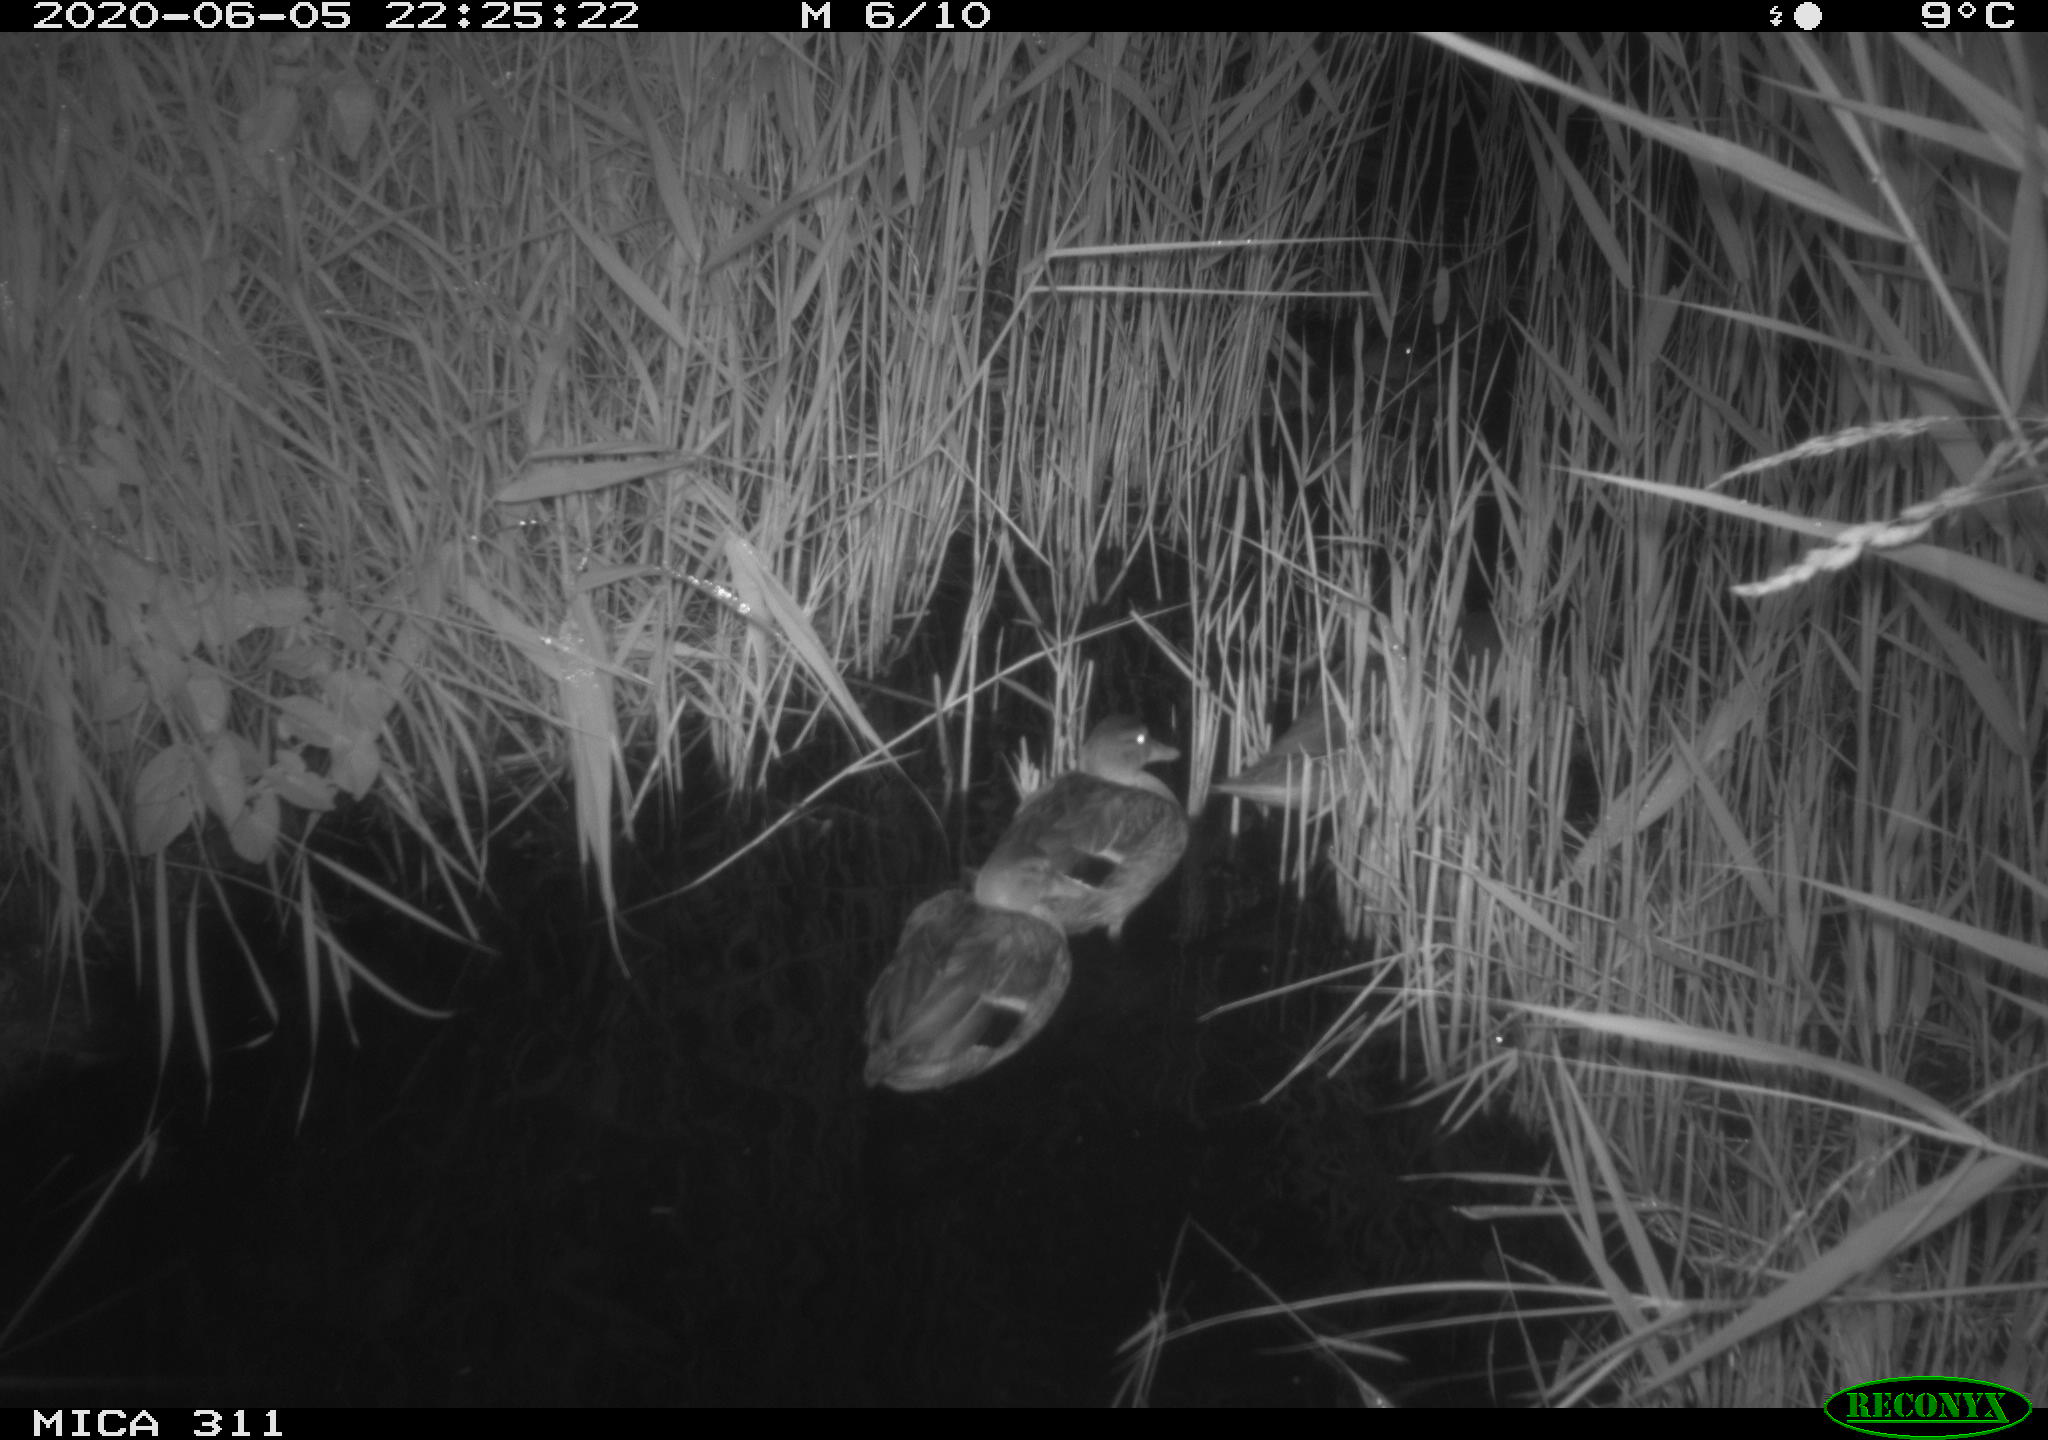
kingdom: Animalia
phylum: Chordata
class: Aves
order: Anseriformes
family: Anatidae
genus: Anas
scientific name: Anas platyrhynchos
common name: Mallard
